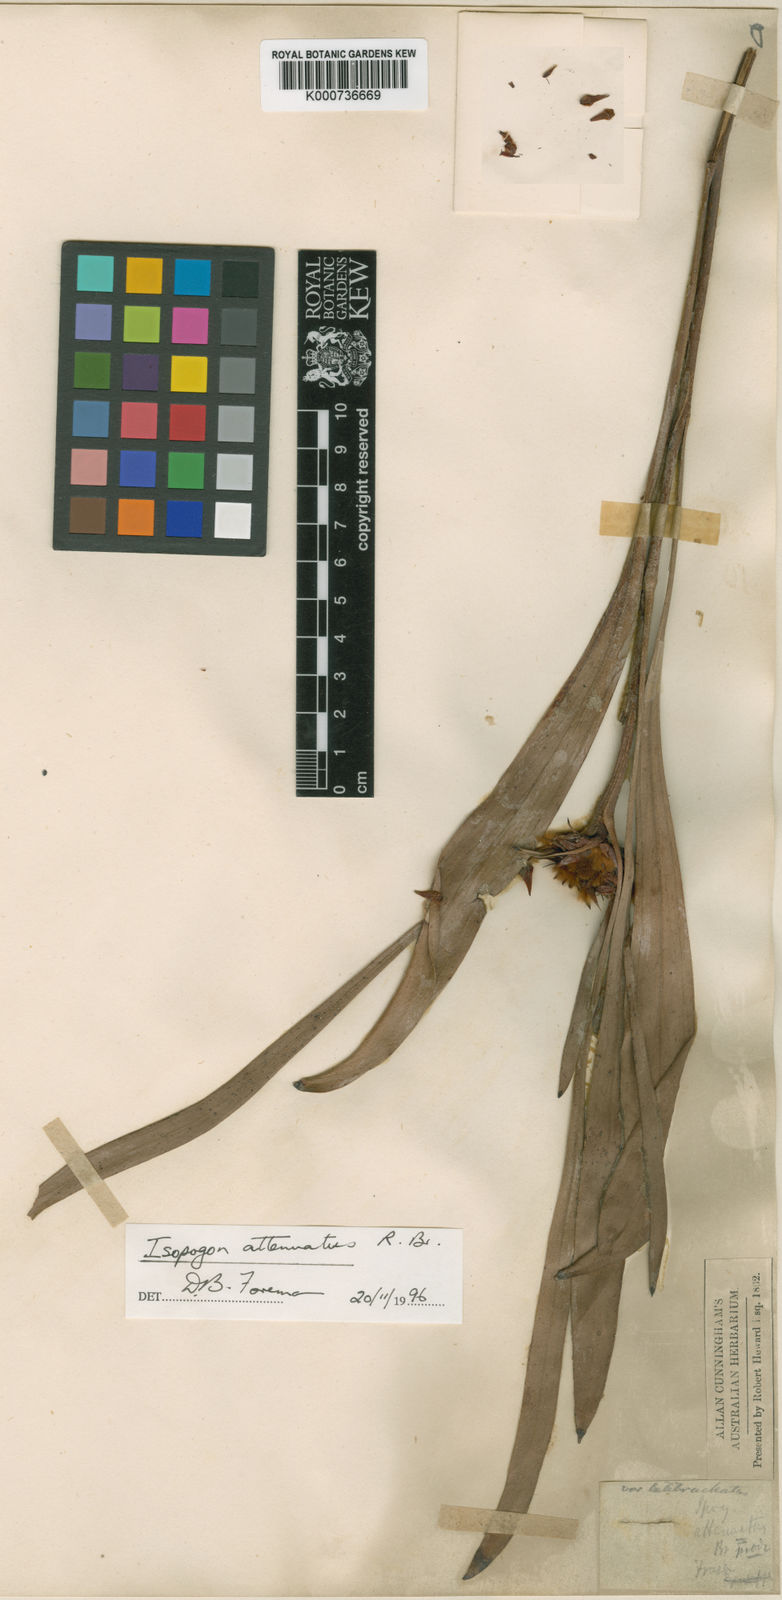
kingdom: Plantae
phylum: Tracheophyta
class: Magnoliopsida
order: Proteales
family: Proteaceae
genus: Isopogon
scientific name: Isopogon attenuatus
